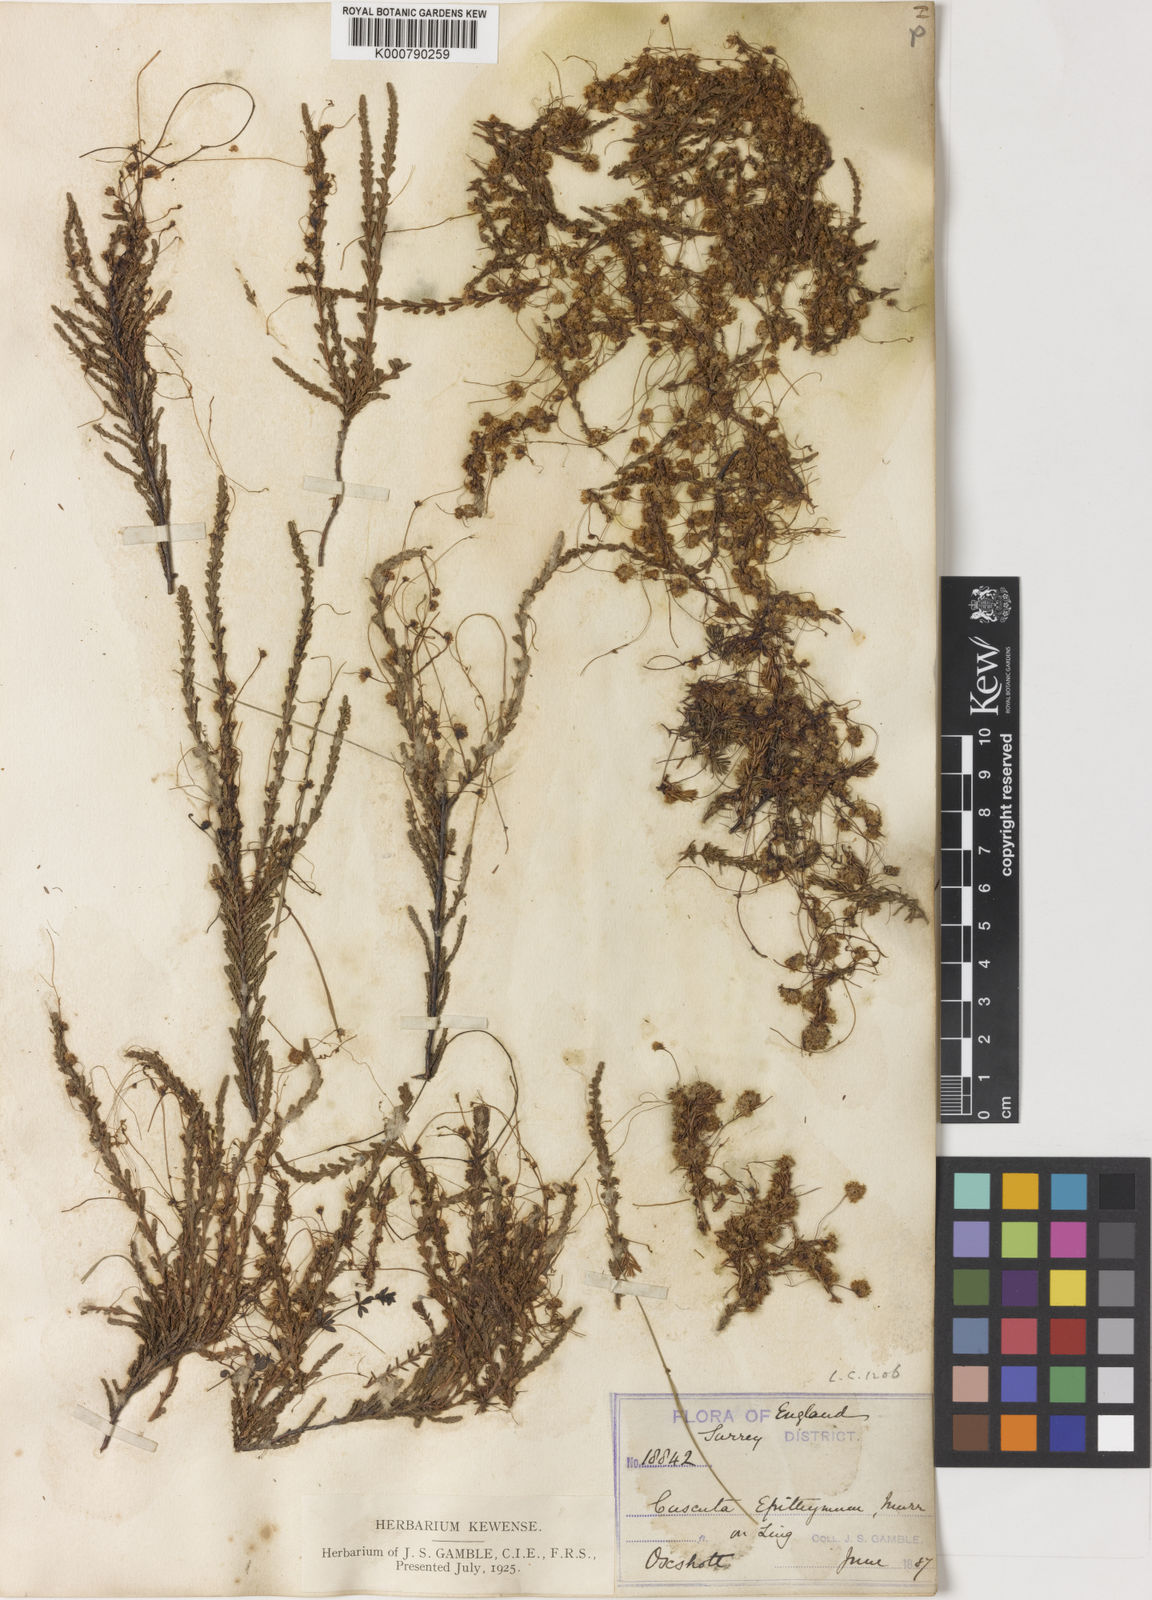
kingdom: Plantae
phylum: Tracheophyta
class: Magnoliopsida
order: Solanales
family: Convolvulaceae
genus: Cuscuta
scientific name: Cuscuta epithymum
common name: Clover dodder
